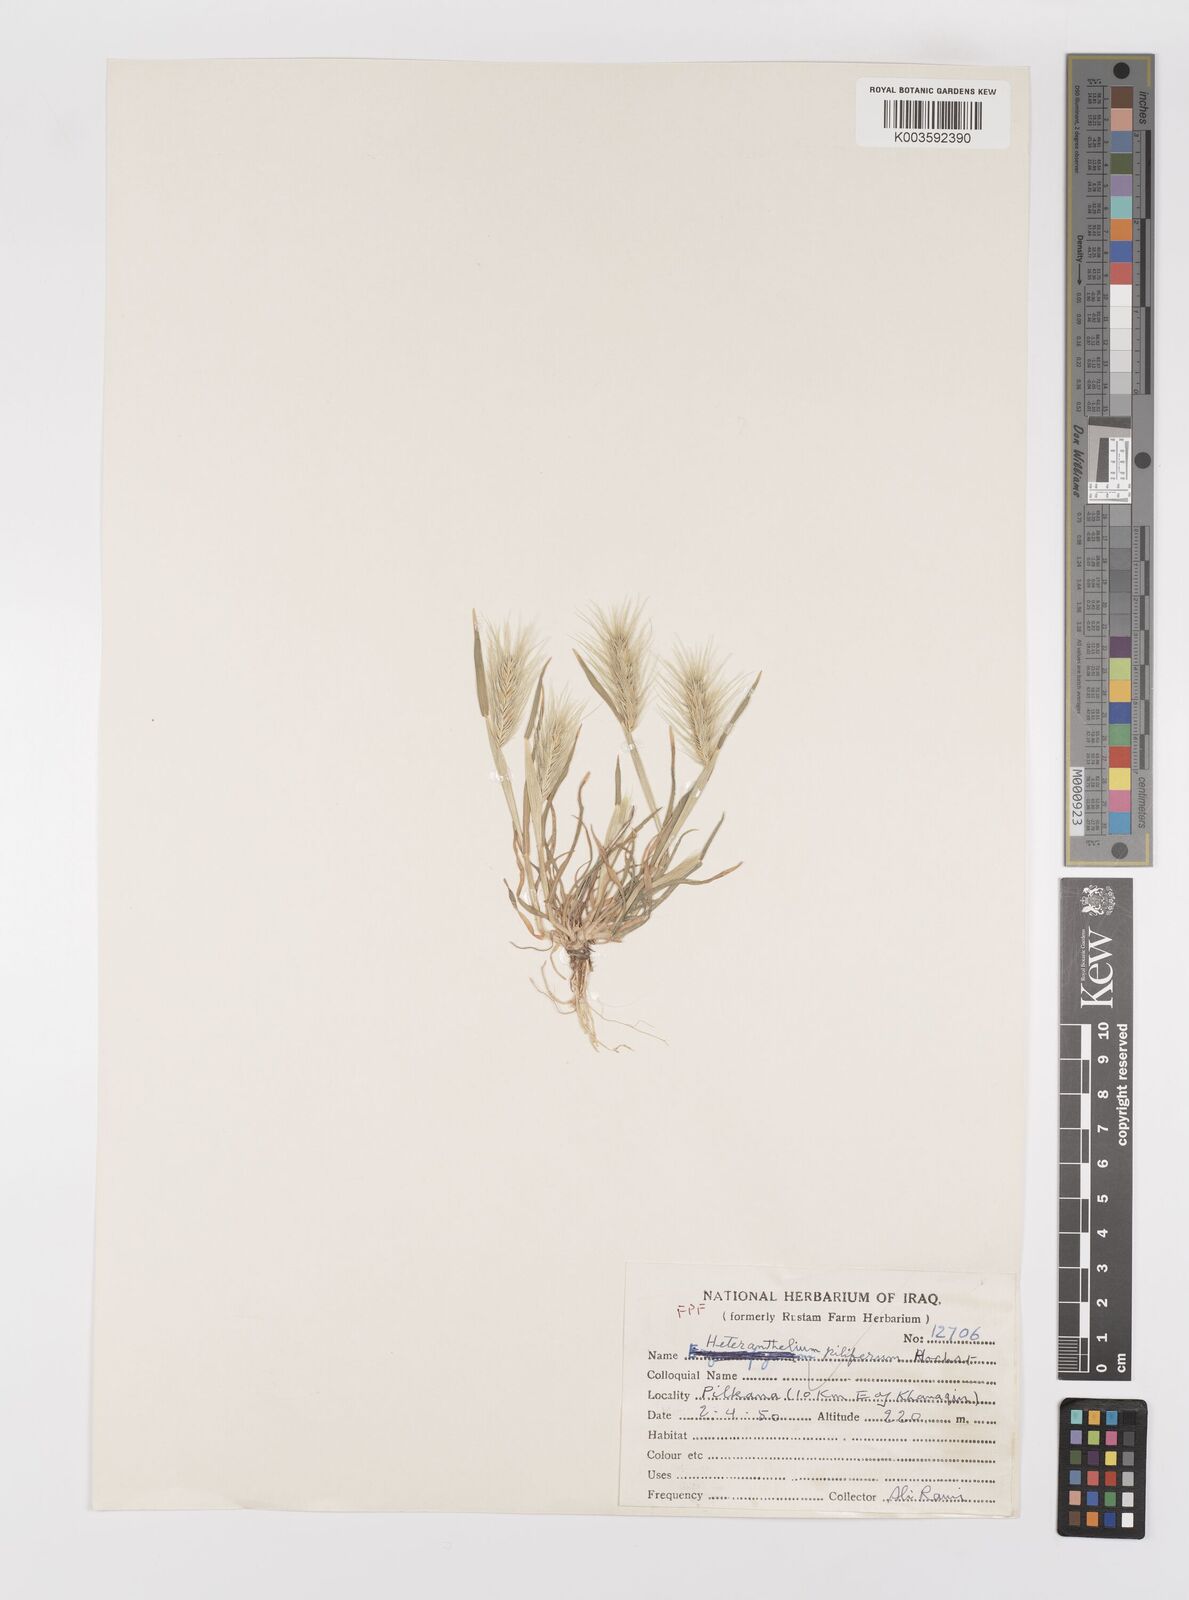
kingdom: Plantae
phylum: Tracheophyta
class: Liliopsida
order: Poales
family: Poaceae
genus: Heteranthelium
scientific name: Heteranthelium piliferum
